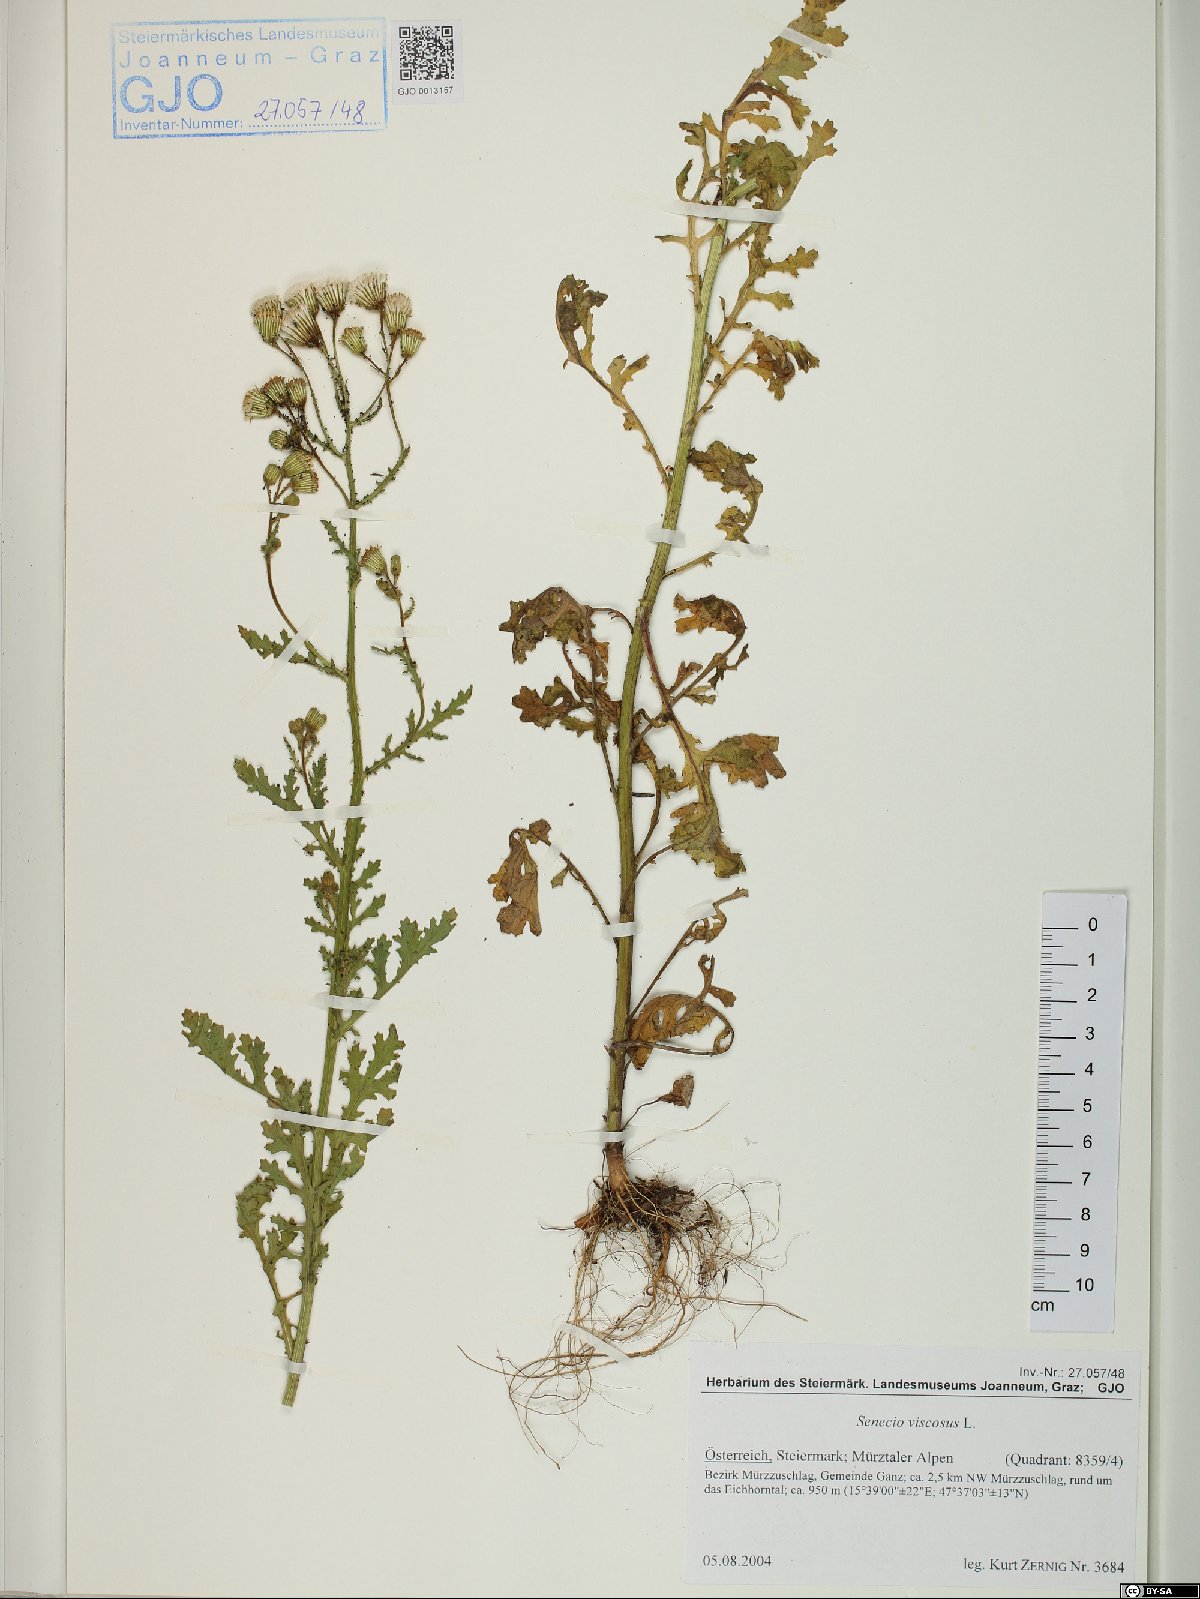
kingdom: Plantae
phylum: Tracheophyta
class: Magnoliopsida
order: Asterales
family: Asteraceae
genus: Senecio
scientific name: Senecio viscosus
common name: Sticky groundsel
